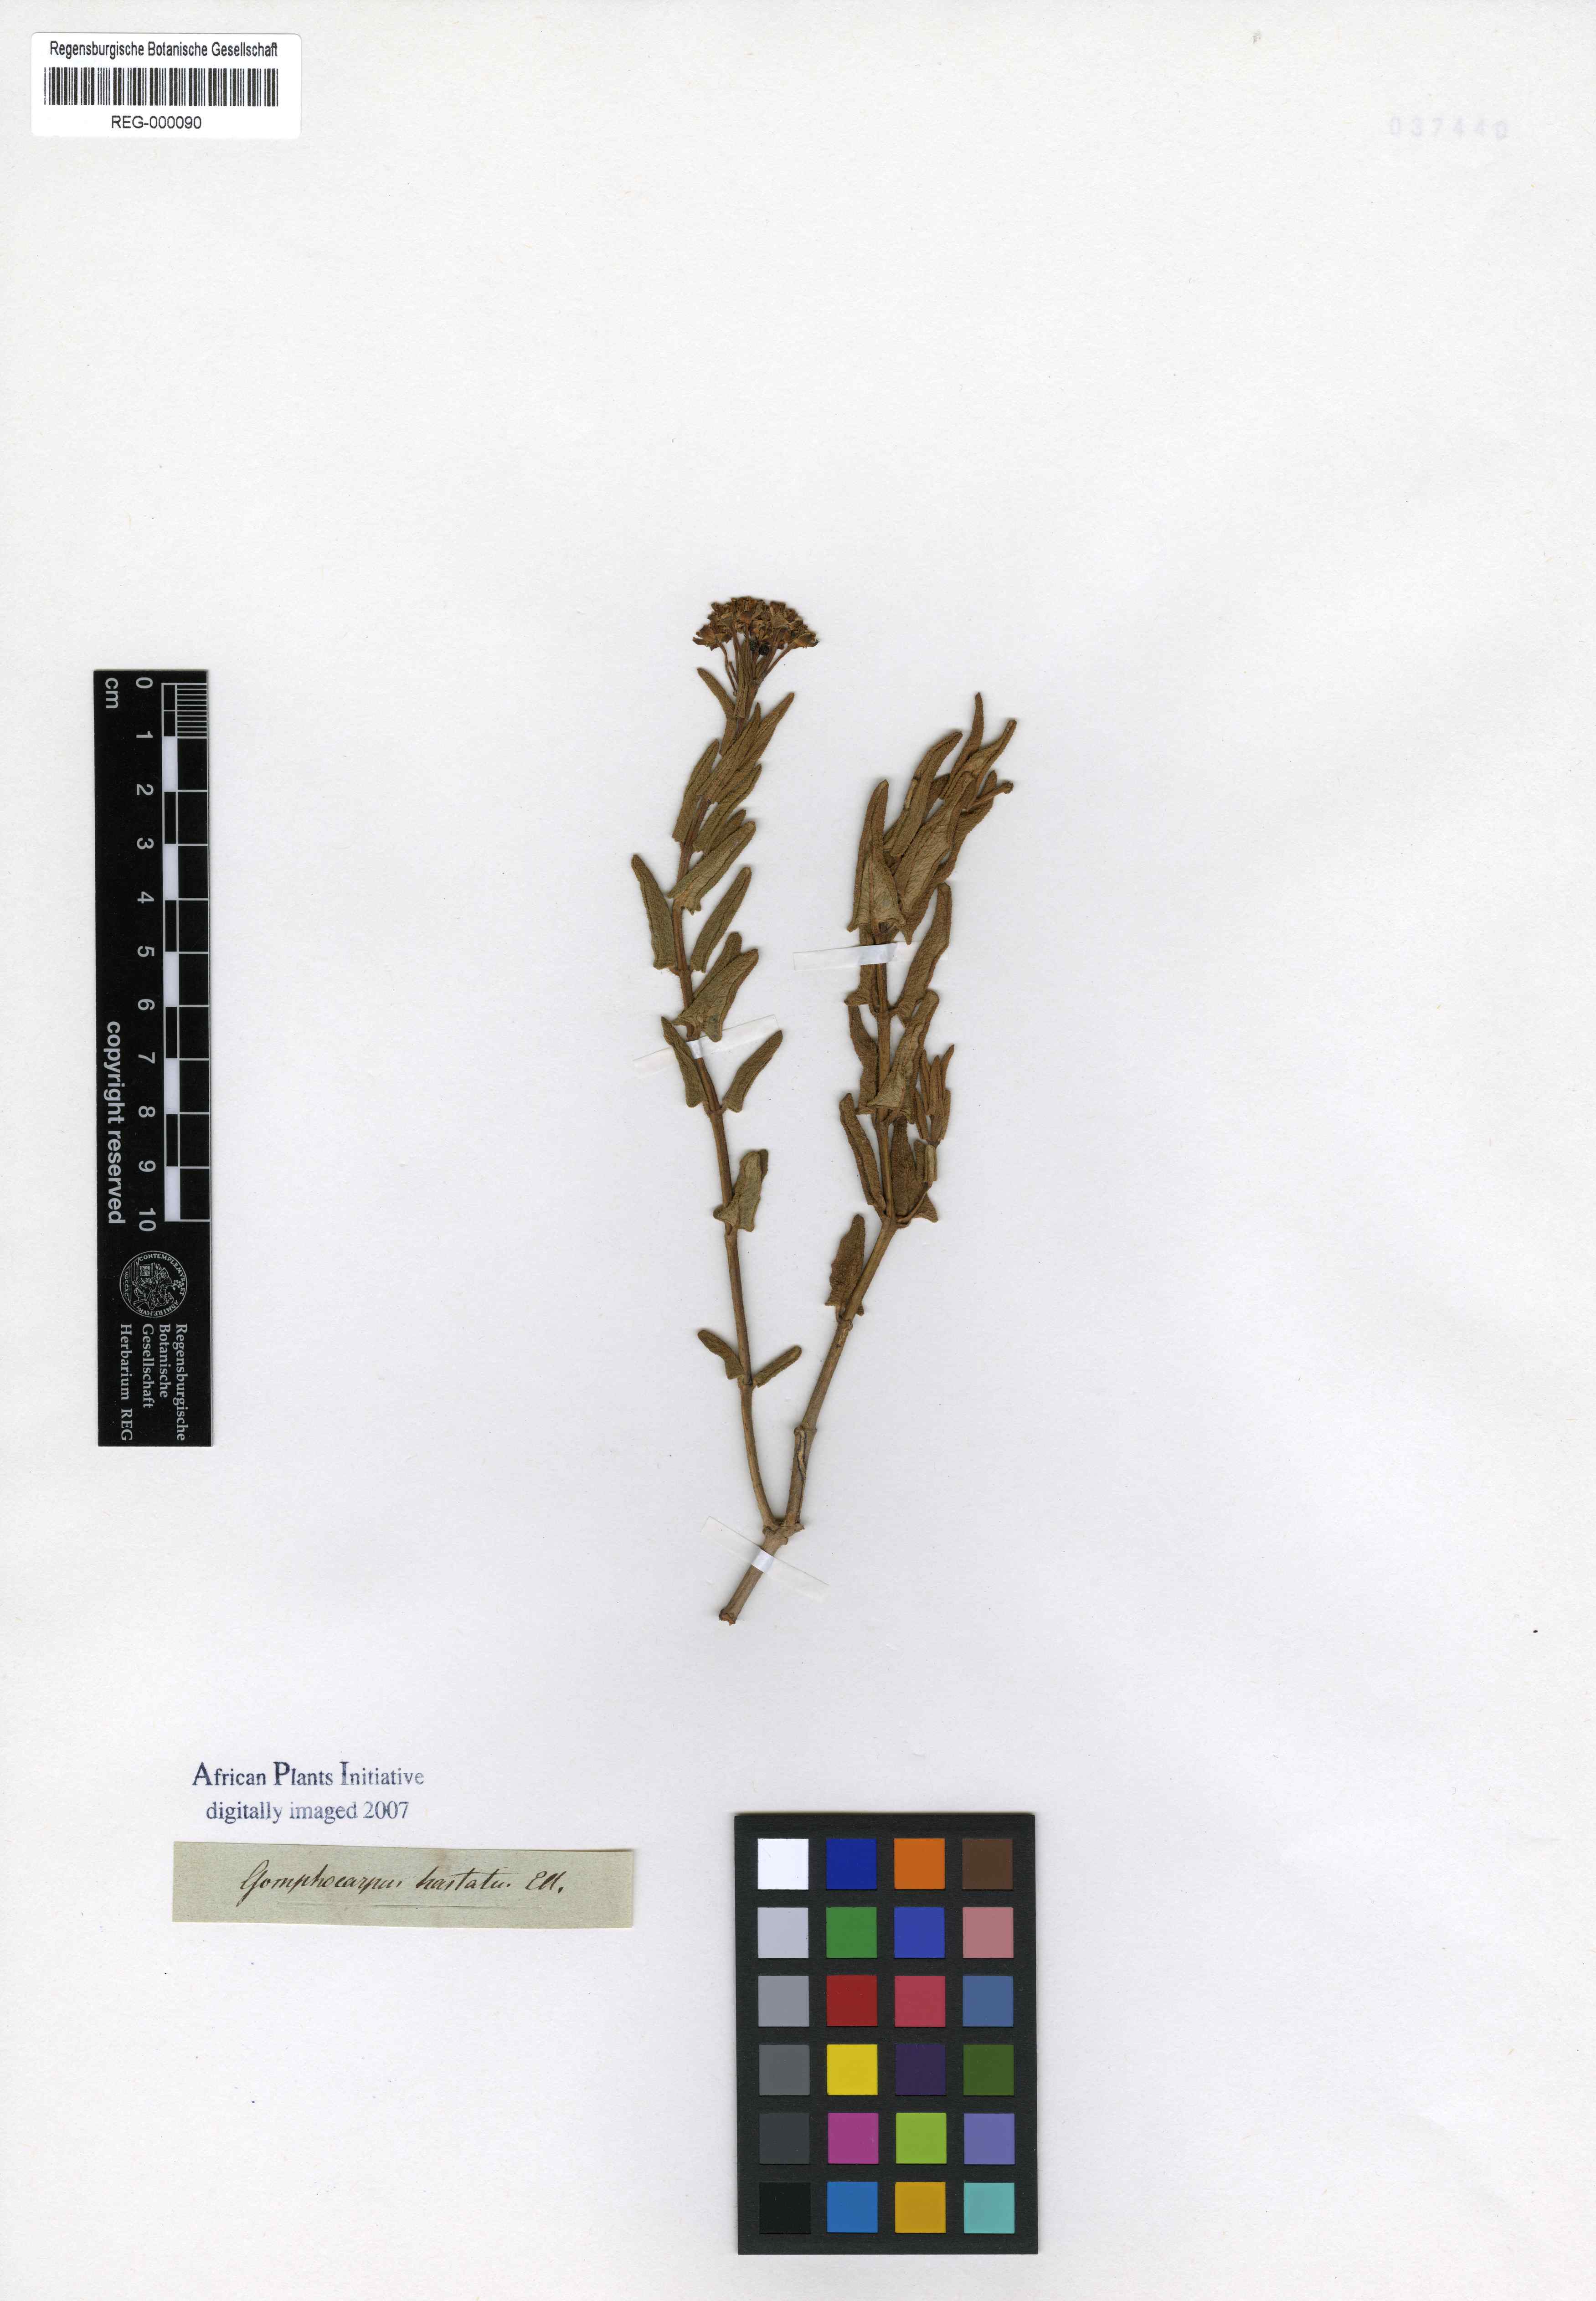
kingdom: Plantae
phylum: Tracheophyta
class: Magnoliopsida
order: Gentianales
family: Apocynaceae
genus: Asclepias
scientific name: Asclepias flanaganii
